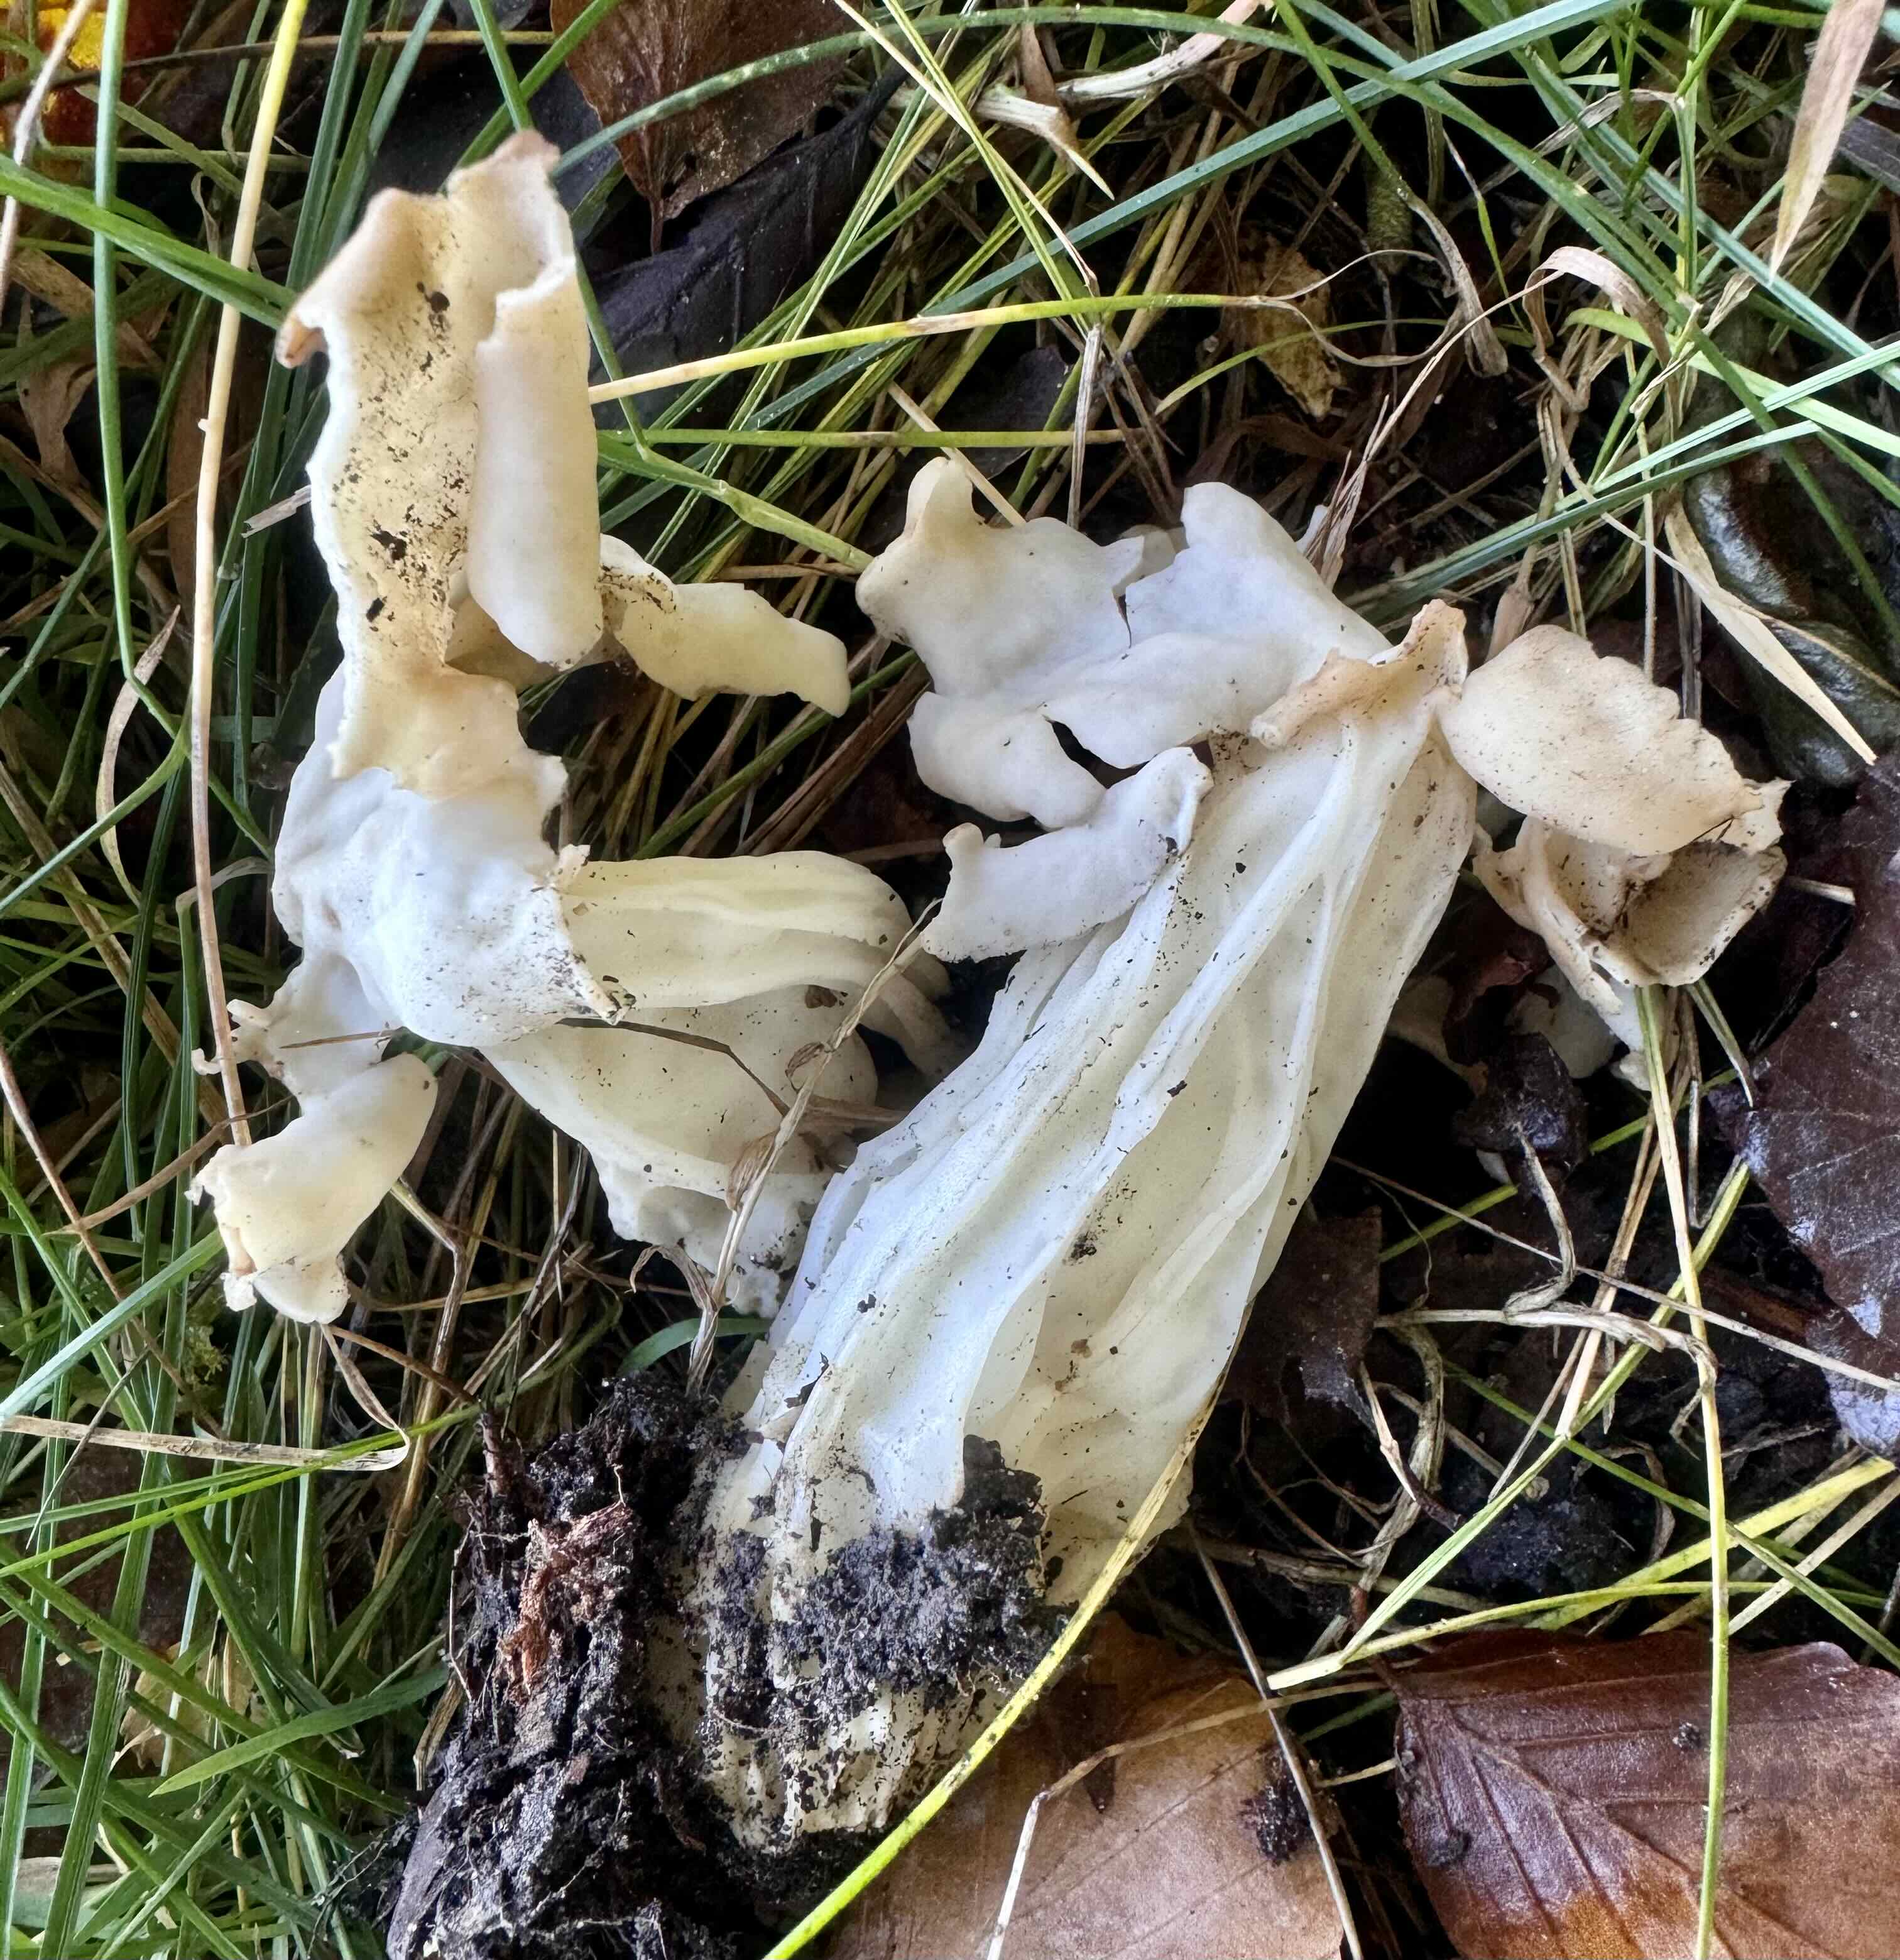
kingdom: Fungi
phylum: Ascomycota
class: Pezizomycetes
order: Pezizales
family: Helvellaceae
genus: Helvella
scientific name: Helvella crispa
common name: kruset foldhat
